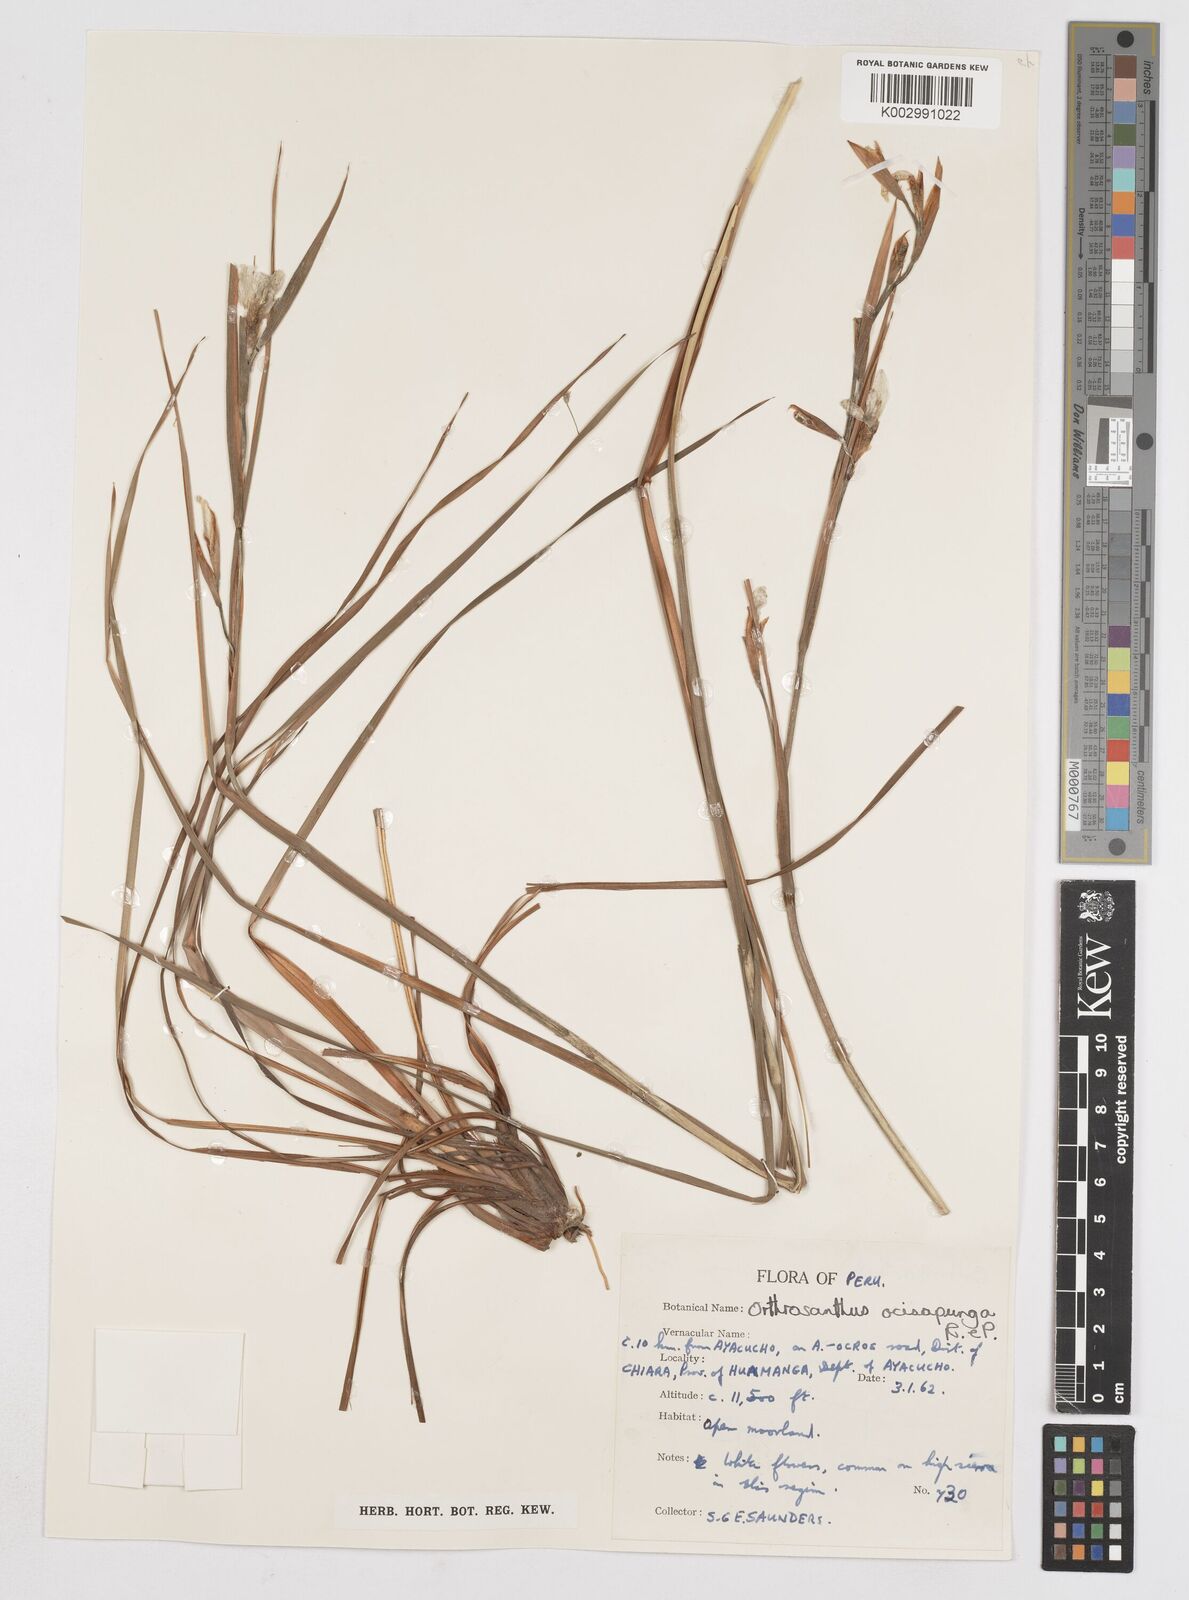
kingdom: Plantae
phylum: Tracheophyta
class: Liliopsida
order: Asparagales
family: Iridaceae
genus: Orthrosanthus
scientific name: Orthrosanthus occissapungus
